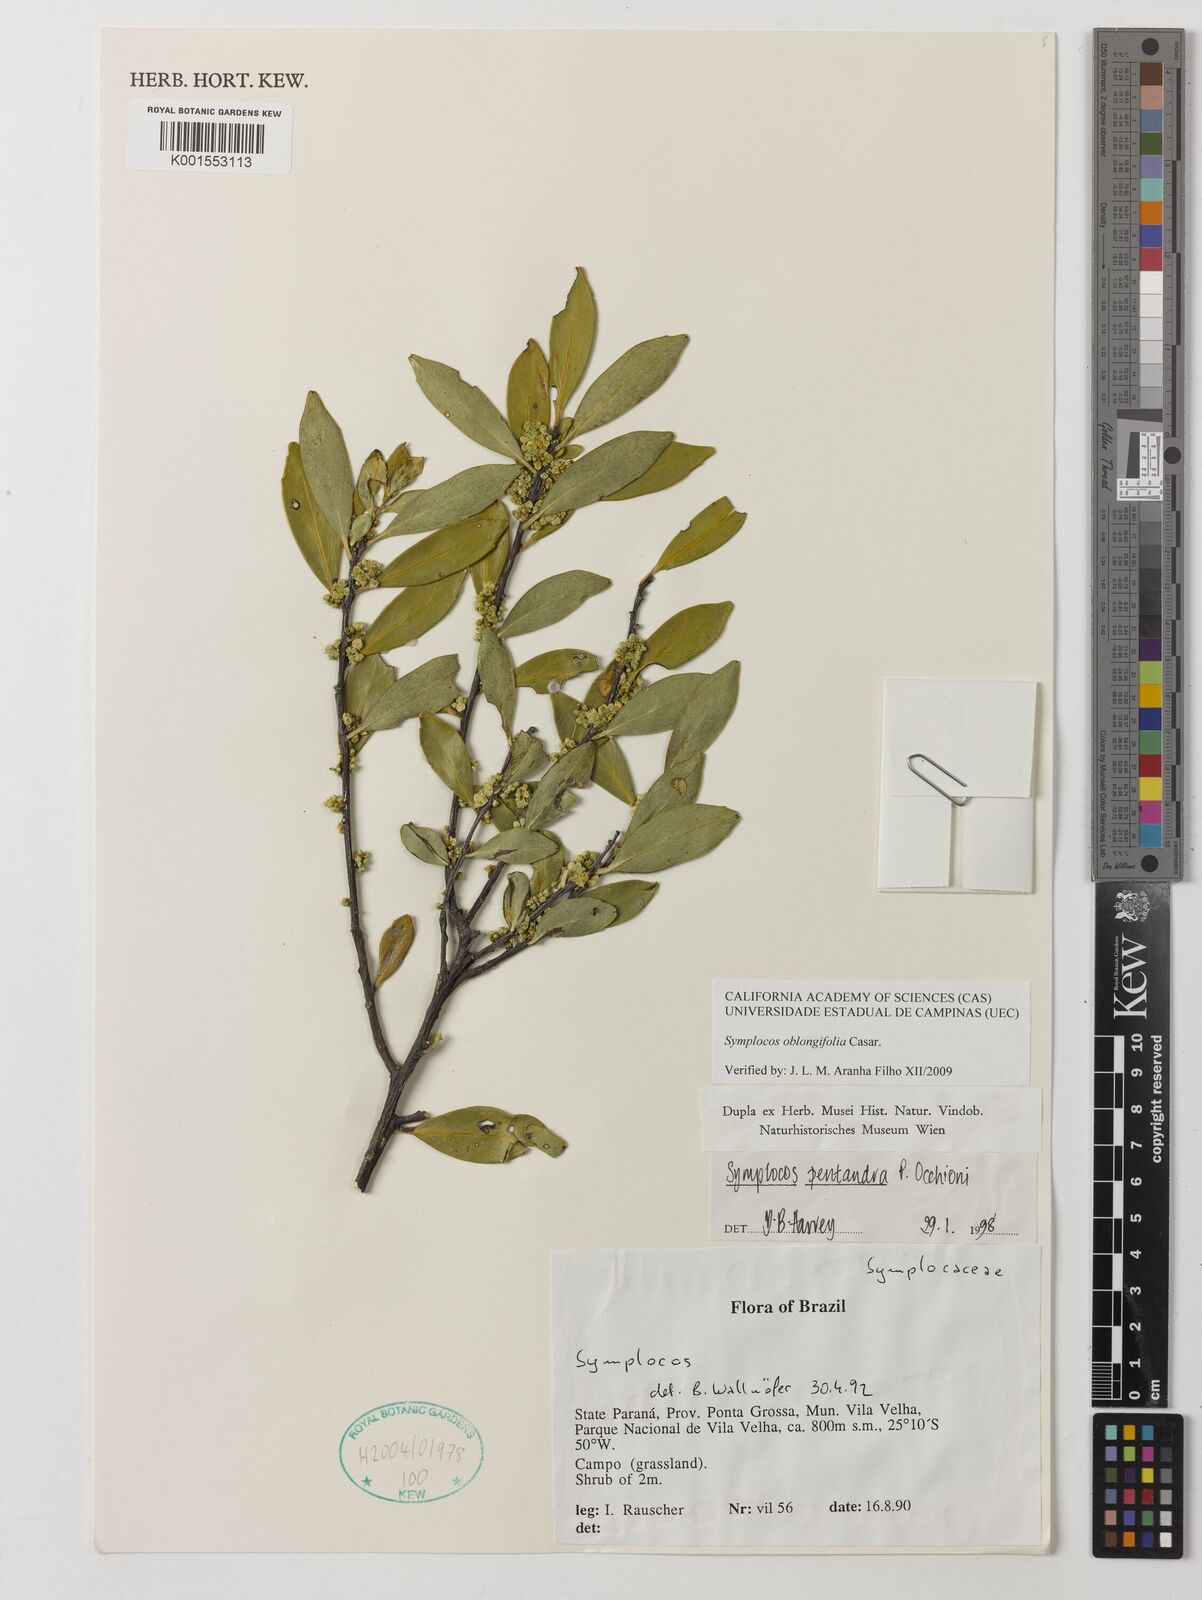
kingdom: Plantae
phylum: Tracheophyta
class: Magnoliopsida
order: Ericales
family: Symplocaceae
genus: Symplocos
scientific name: Symplocos oblongifolia
